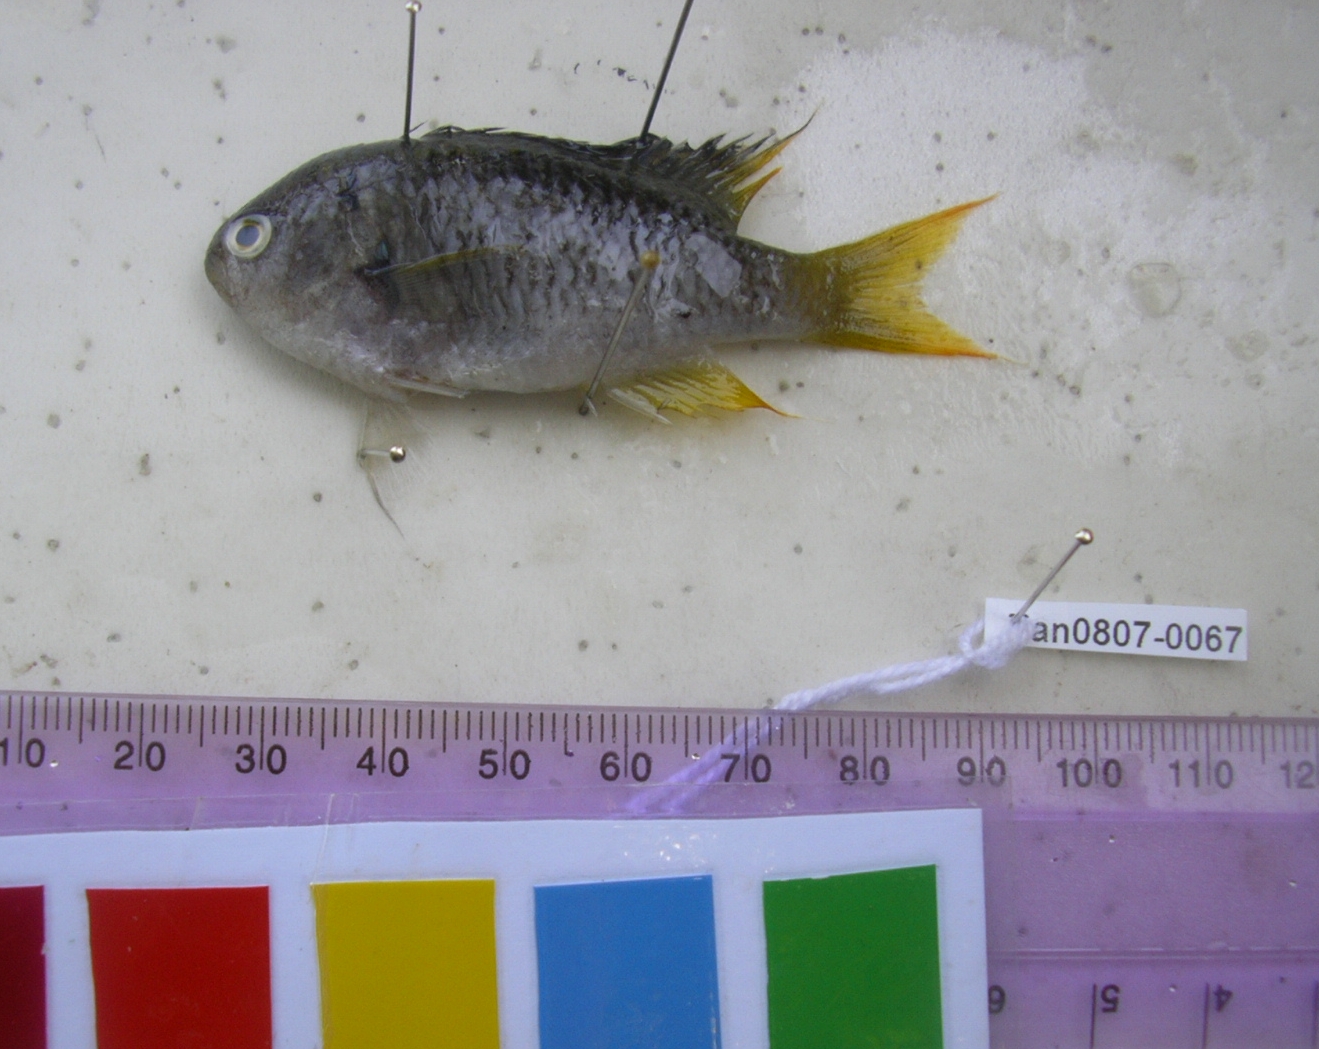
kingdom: Animalia
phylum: Chordata
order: Perciformes
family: Pomacentridae
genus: Neopomacentrus
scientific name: Neopomacentrus azysron
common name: Yellow-tail damsel
